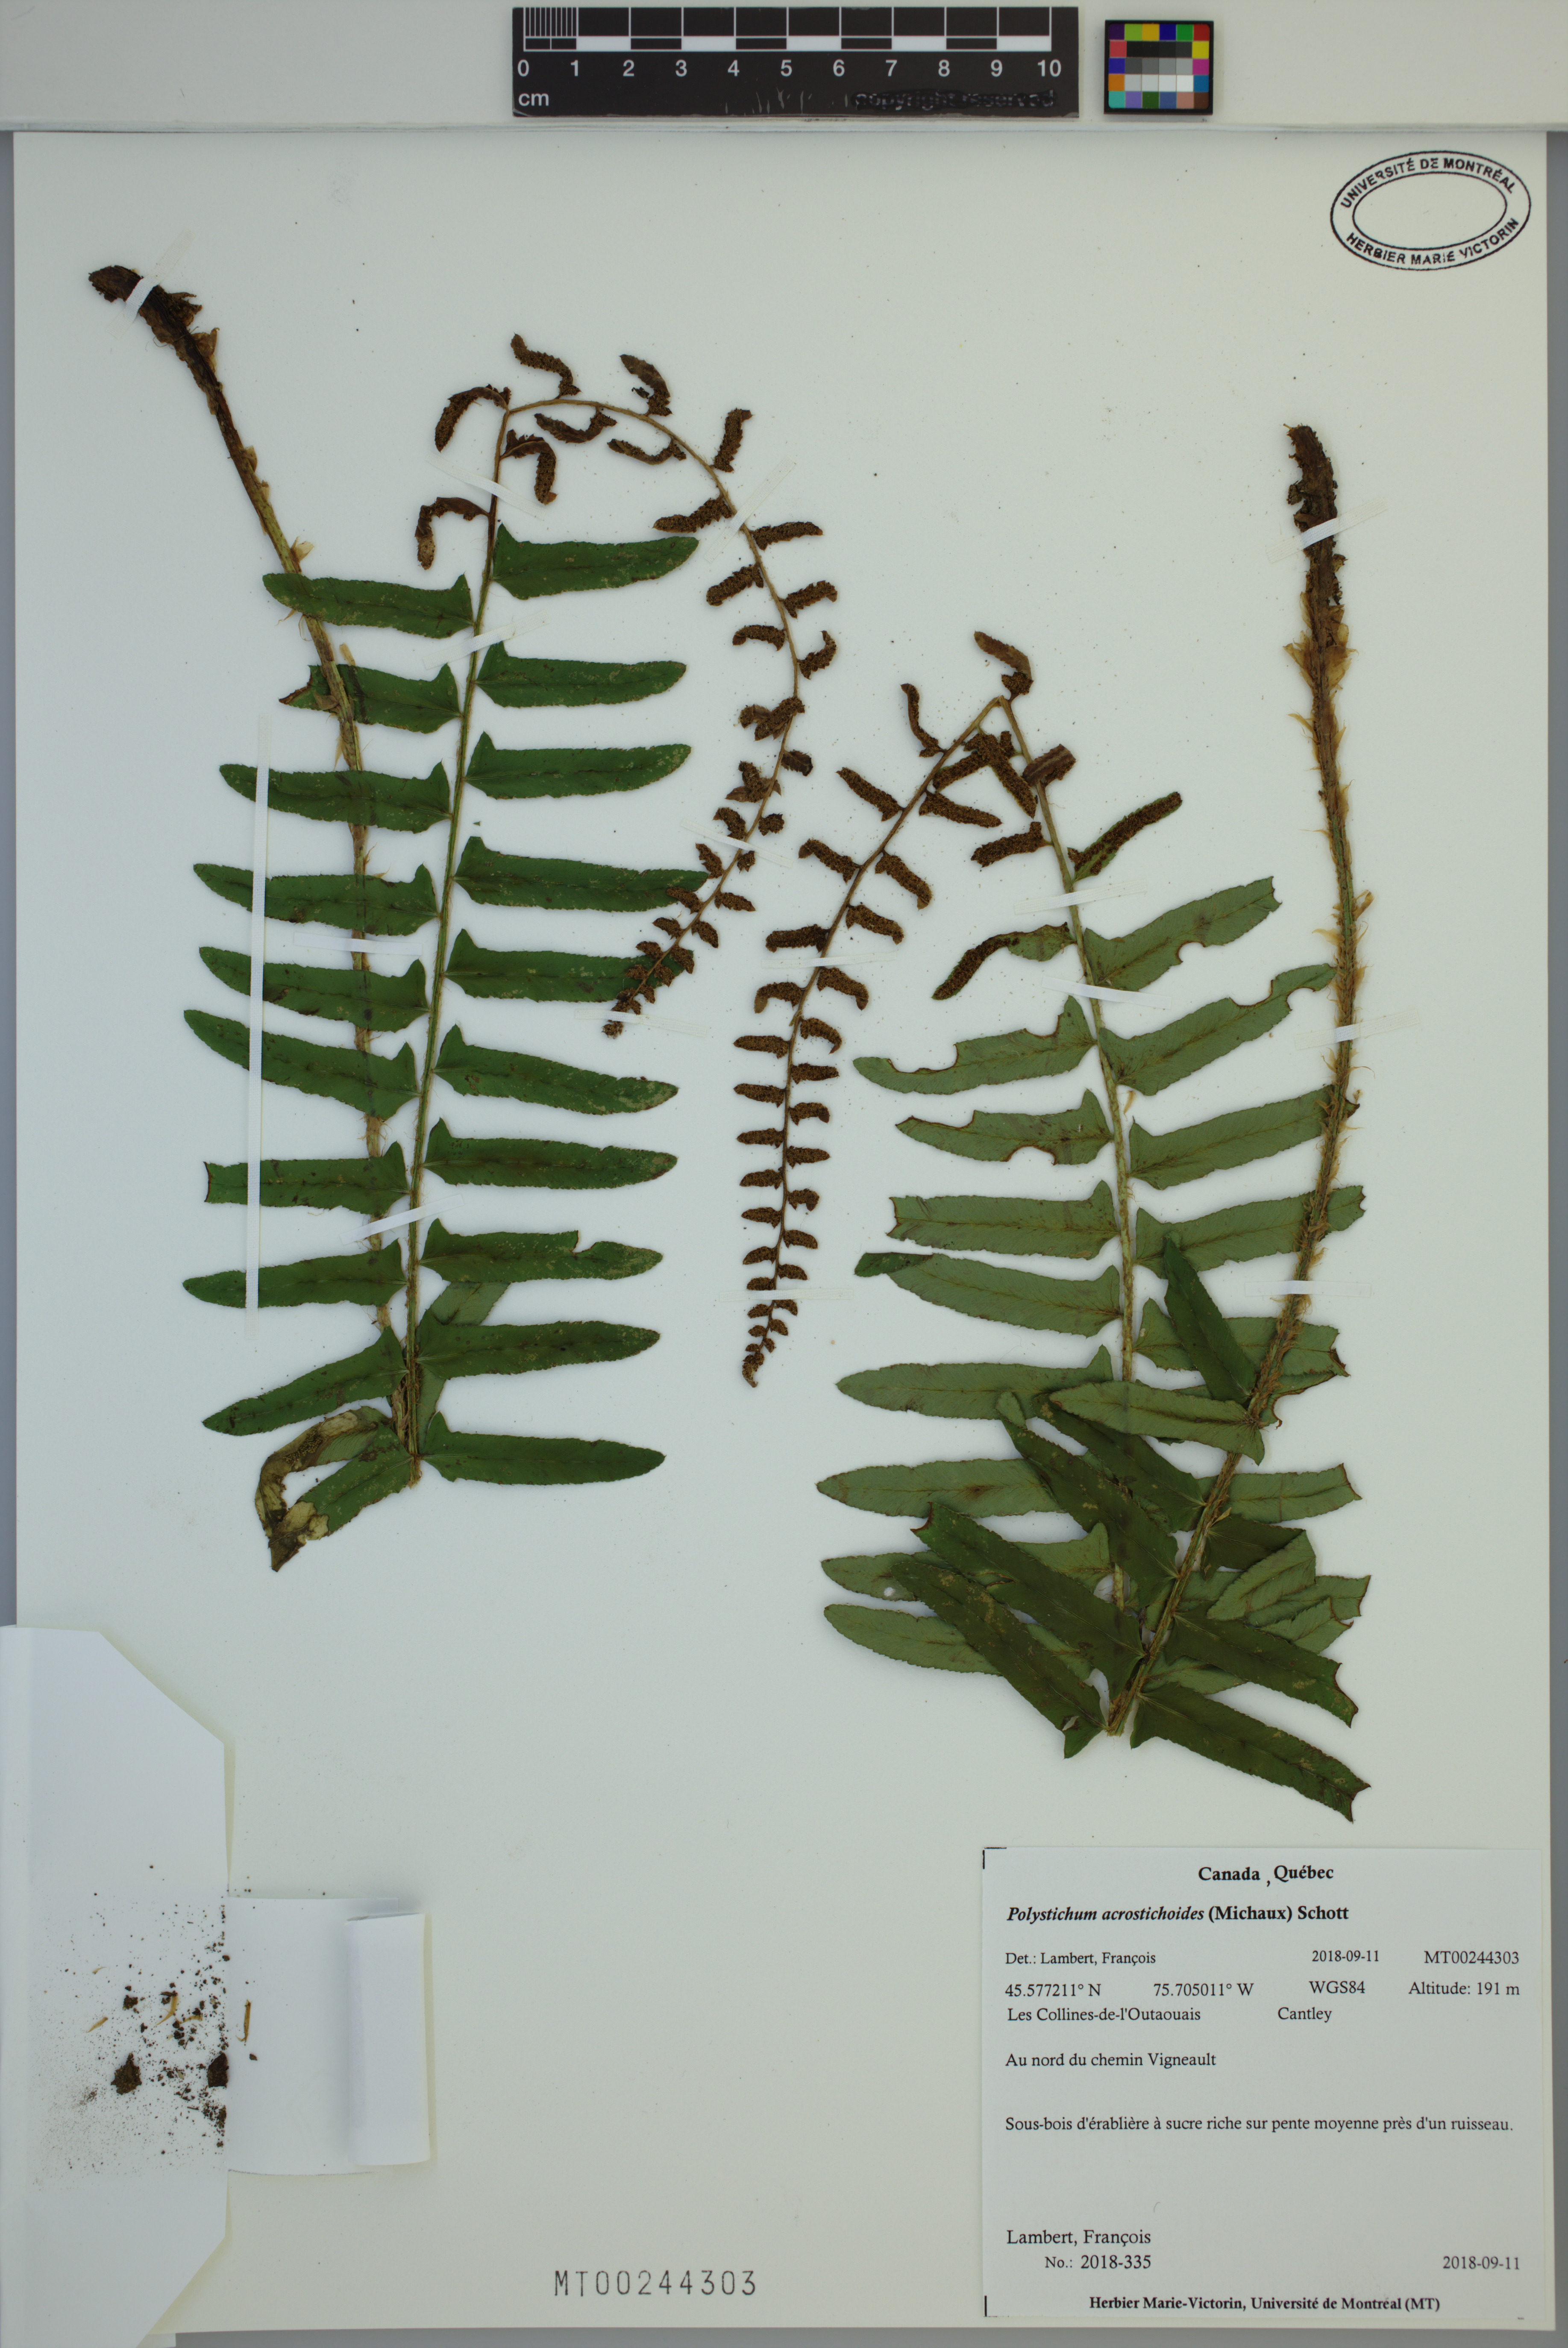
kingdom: Plantae
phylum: Tracheophyta
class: Polypodiopsida
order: Polypodiales
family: Dryopteridaceae
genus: Polystichum
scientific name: Polystichum acrostichoides
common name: Christmas fern
